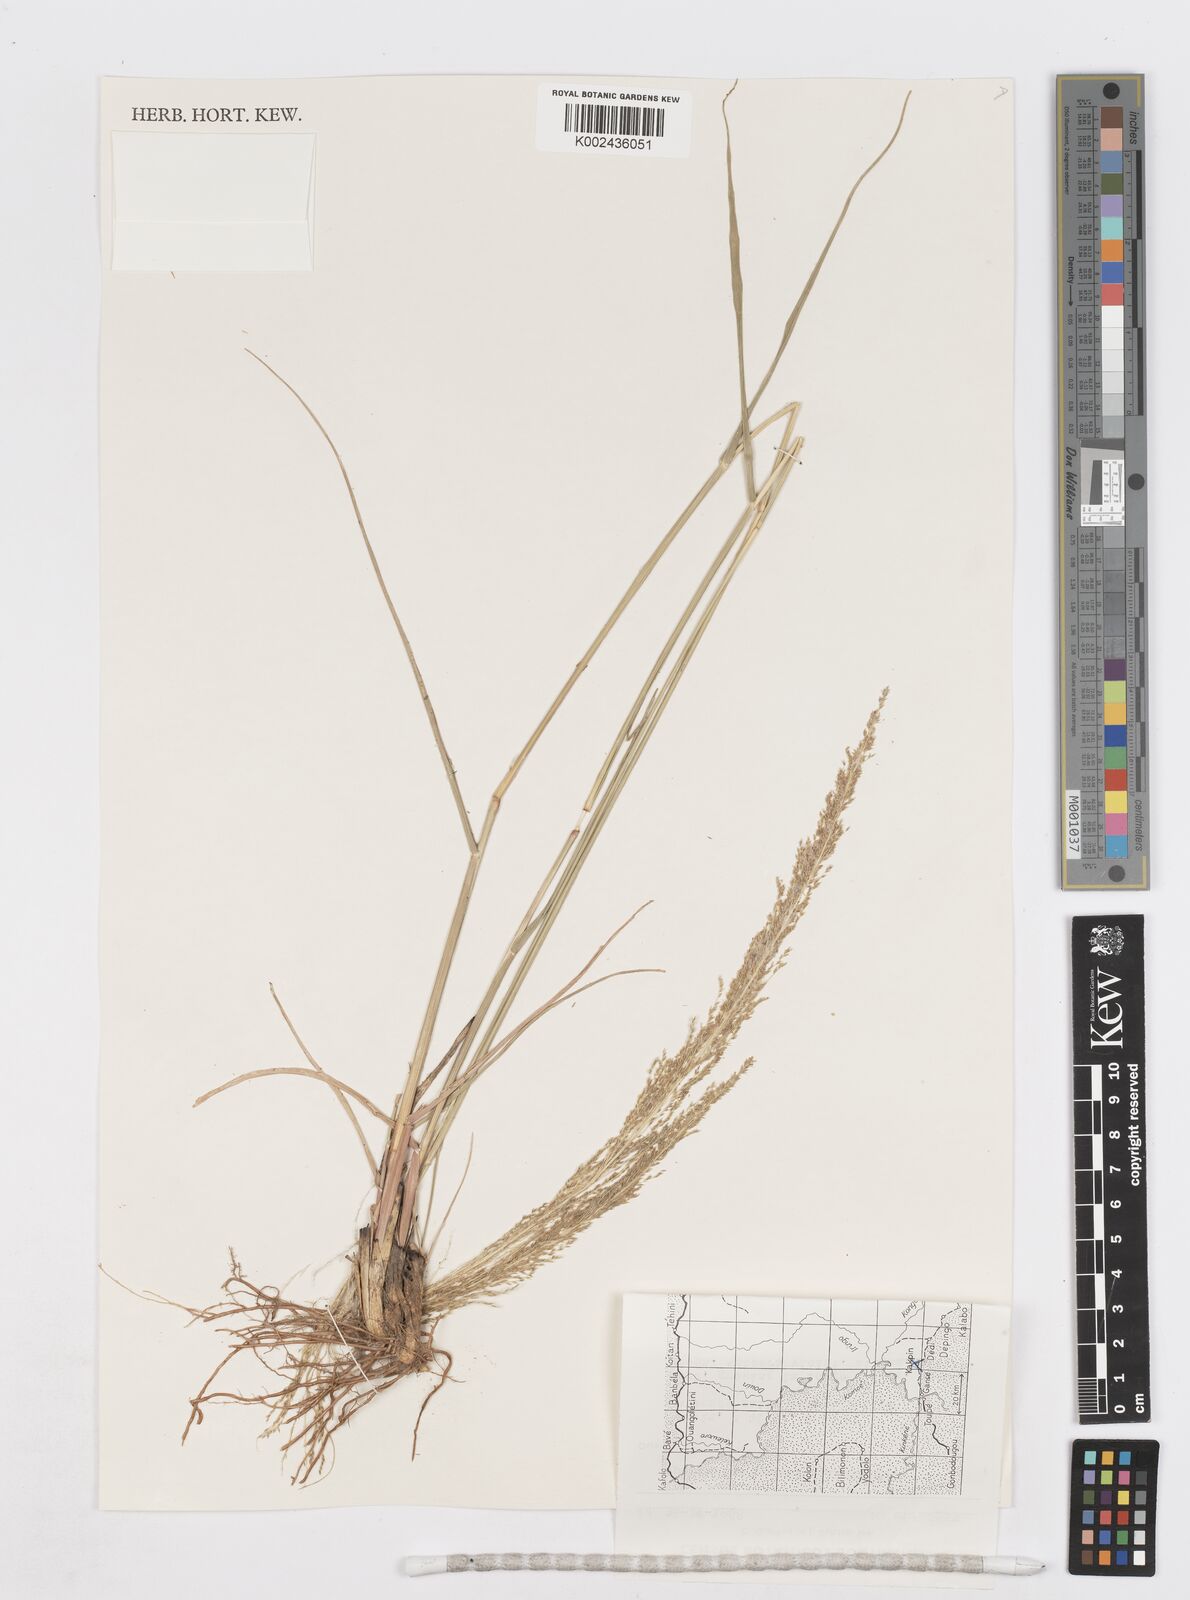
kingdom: Plantae
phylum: Tracheophyta
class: Liliopsida
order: Poales
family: Poaceae
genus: Sporobolus
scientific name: Sporobolus pyramidalis
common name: West indian dropseed
